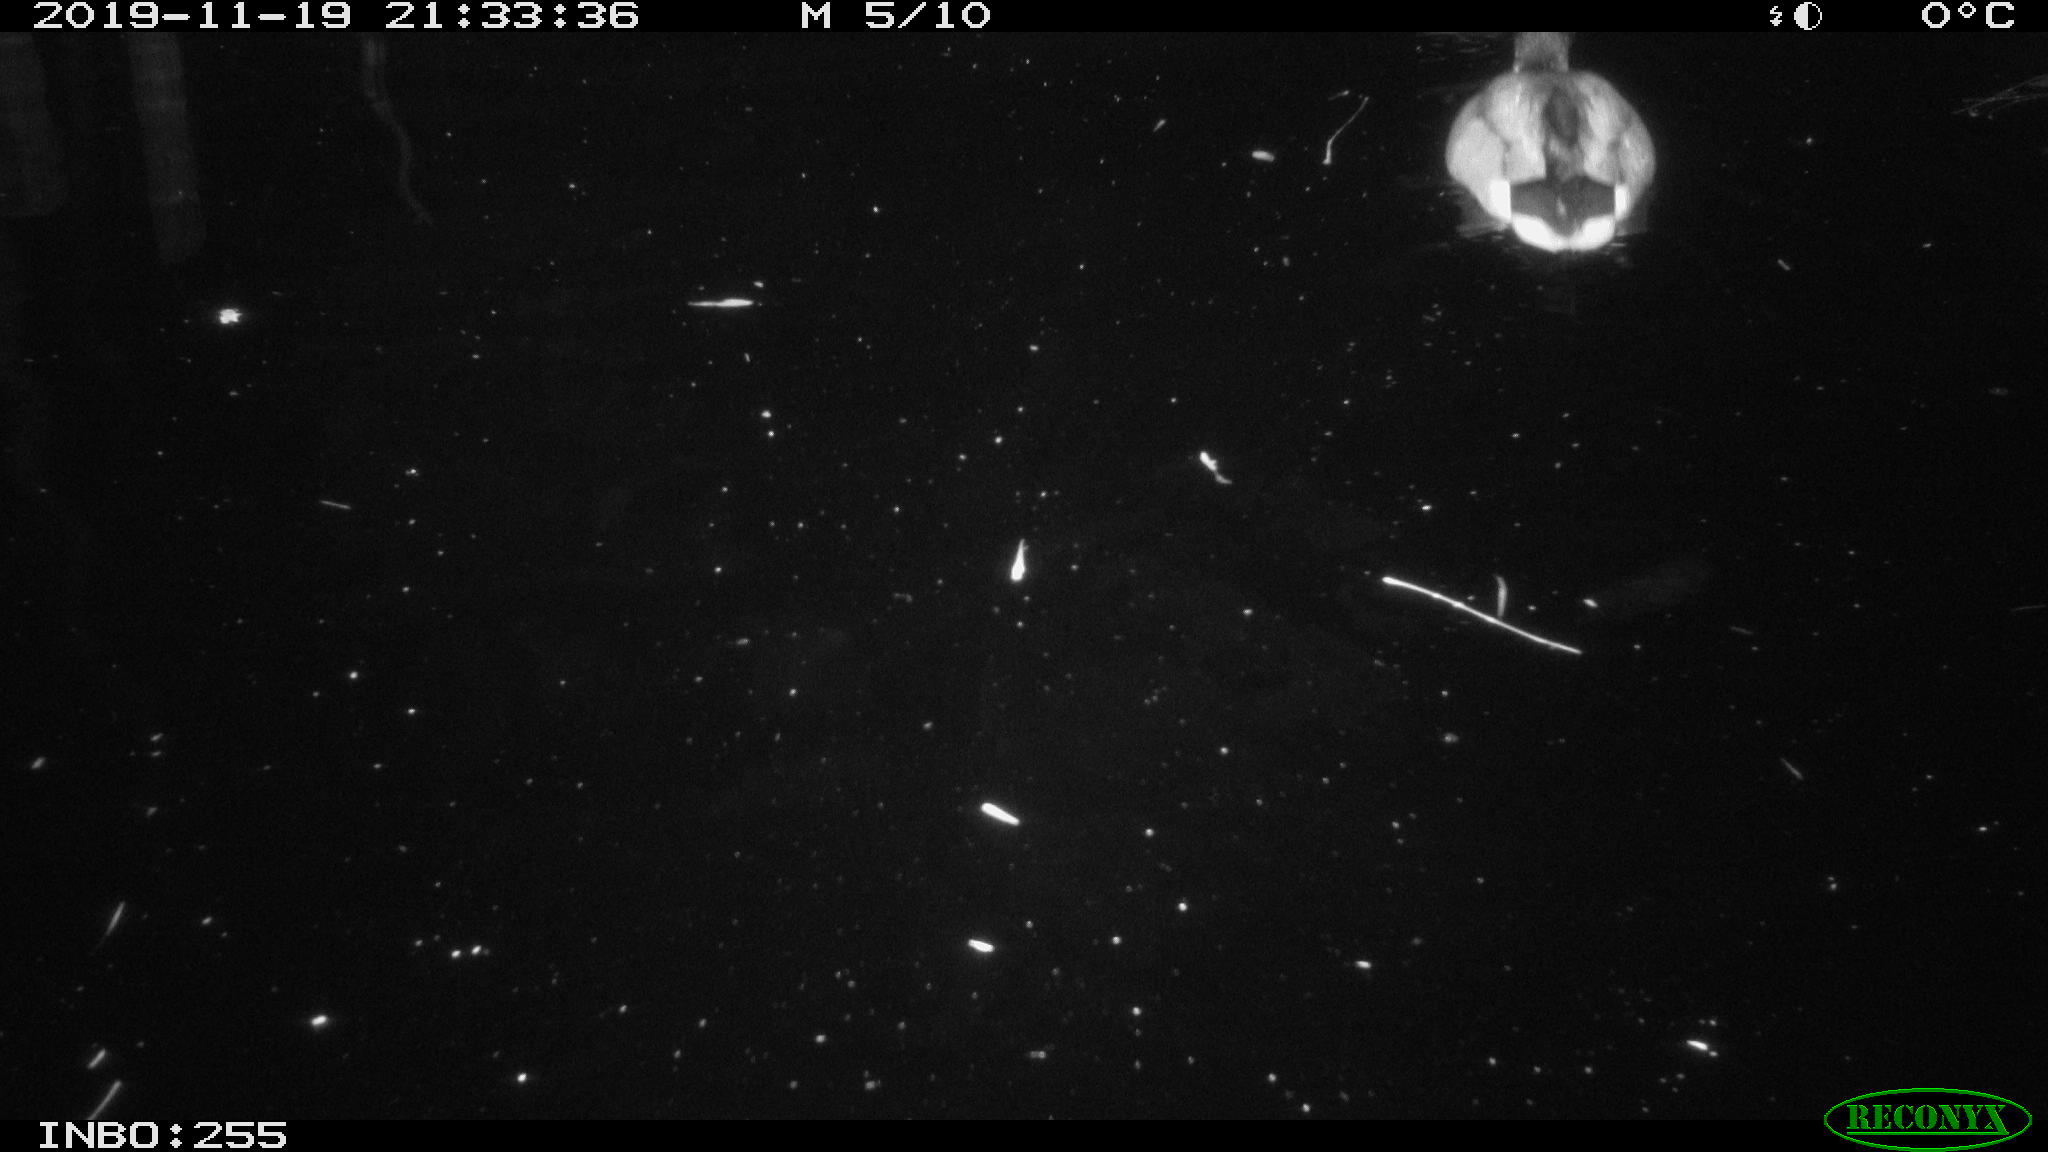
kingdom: Animalia
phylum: Chordata
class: Aves
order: Anseriformes
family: Anatidae
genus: Anas
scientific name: Anas platyrhynchos
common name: Mallard
